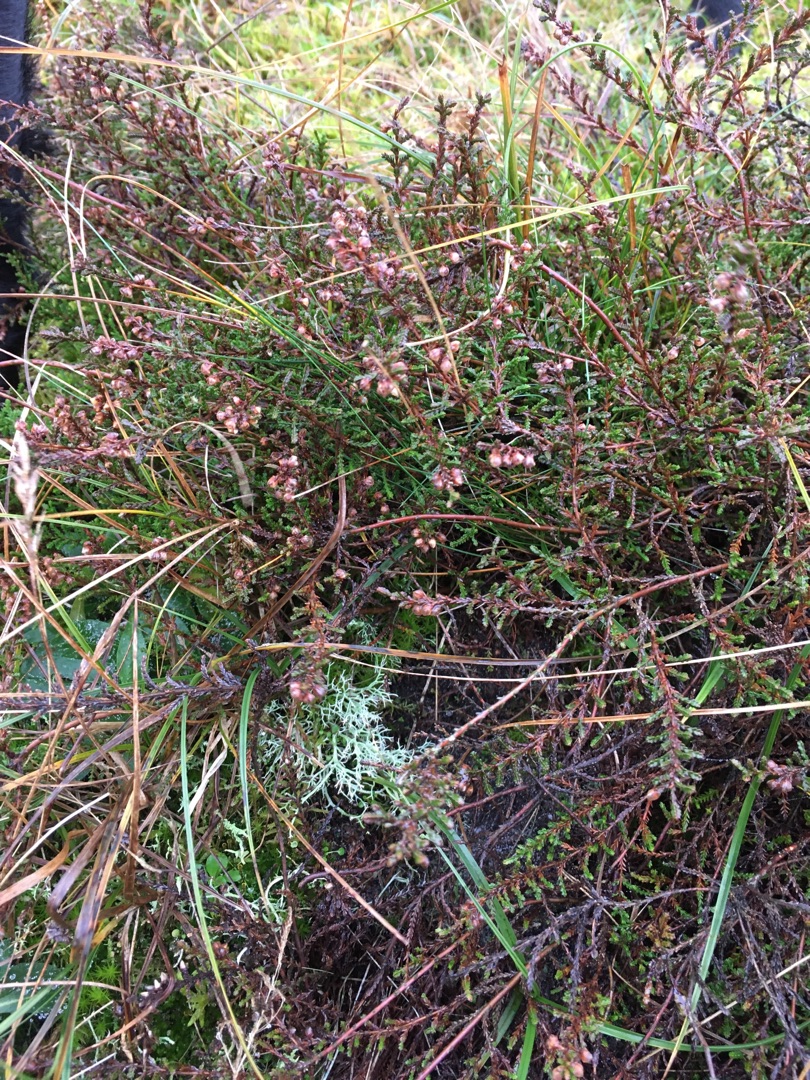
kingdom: Plantae
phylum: Tracheophyta
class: Magnoliopsida
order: Ericales
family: Ericaceae
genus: Calluna
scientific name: Calluna vulgaris
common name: Hedelyng
